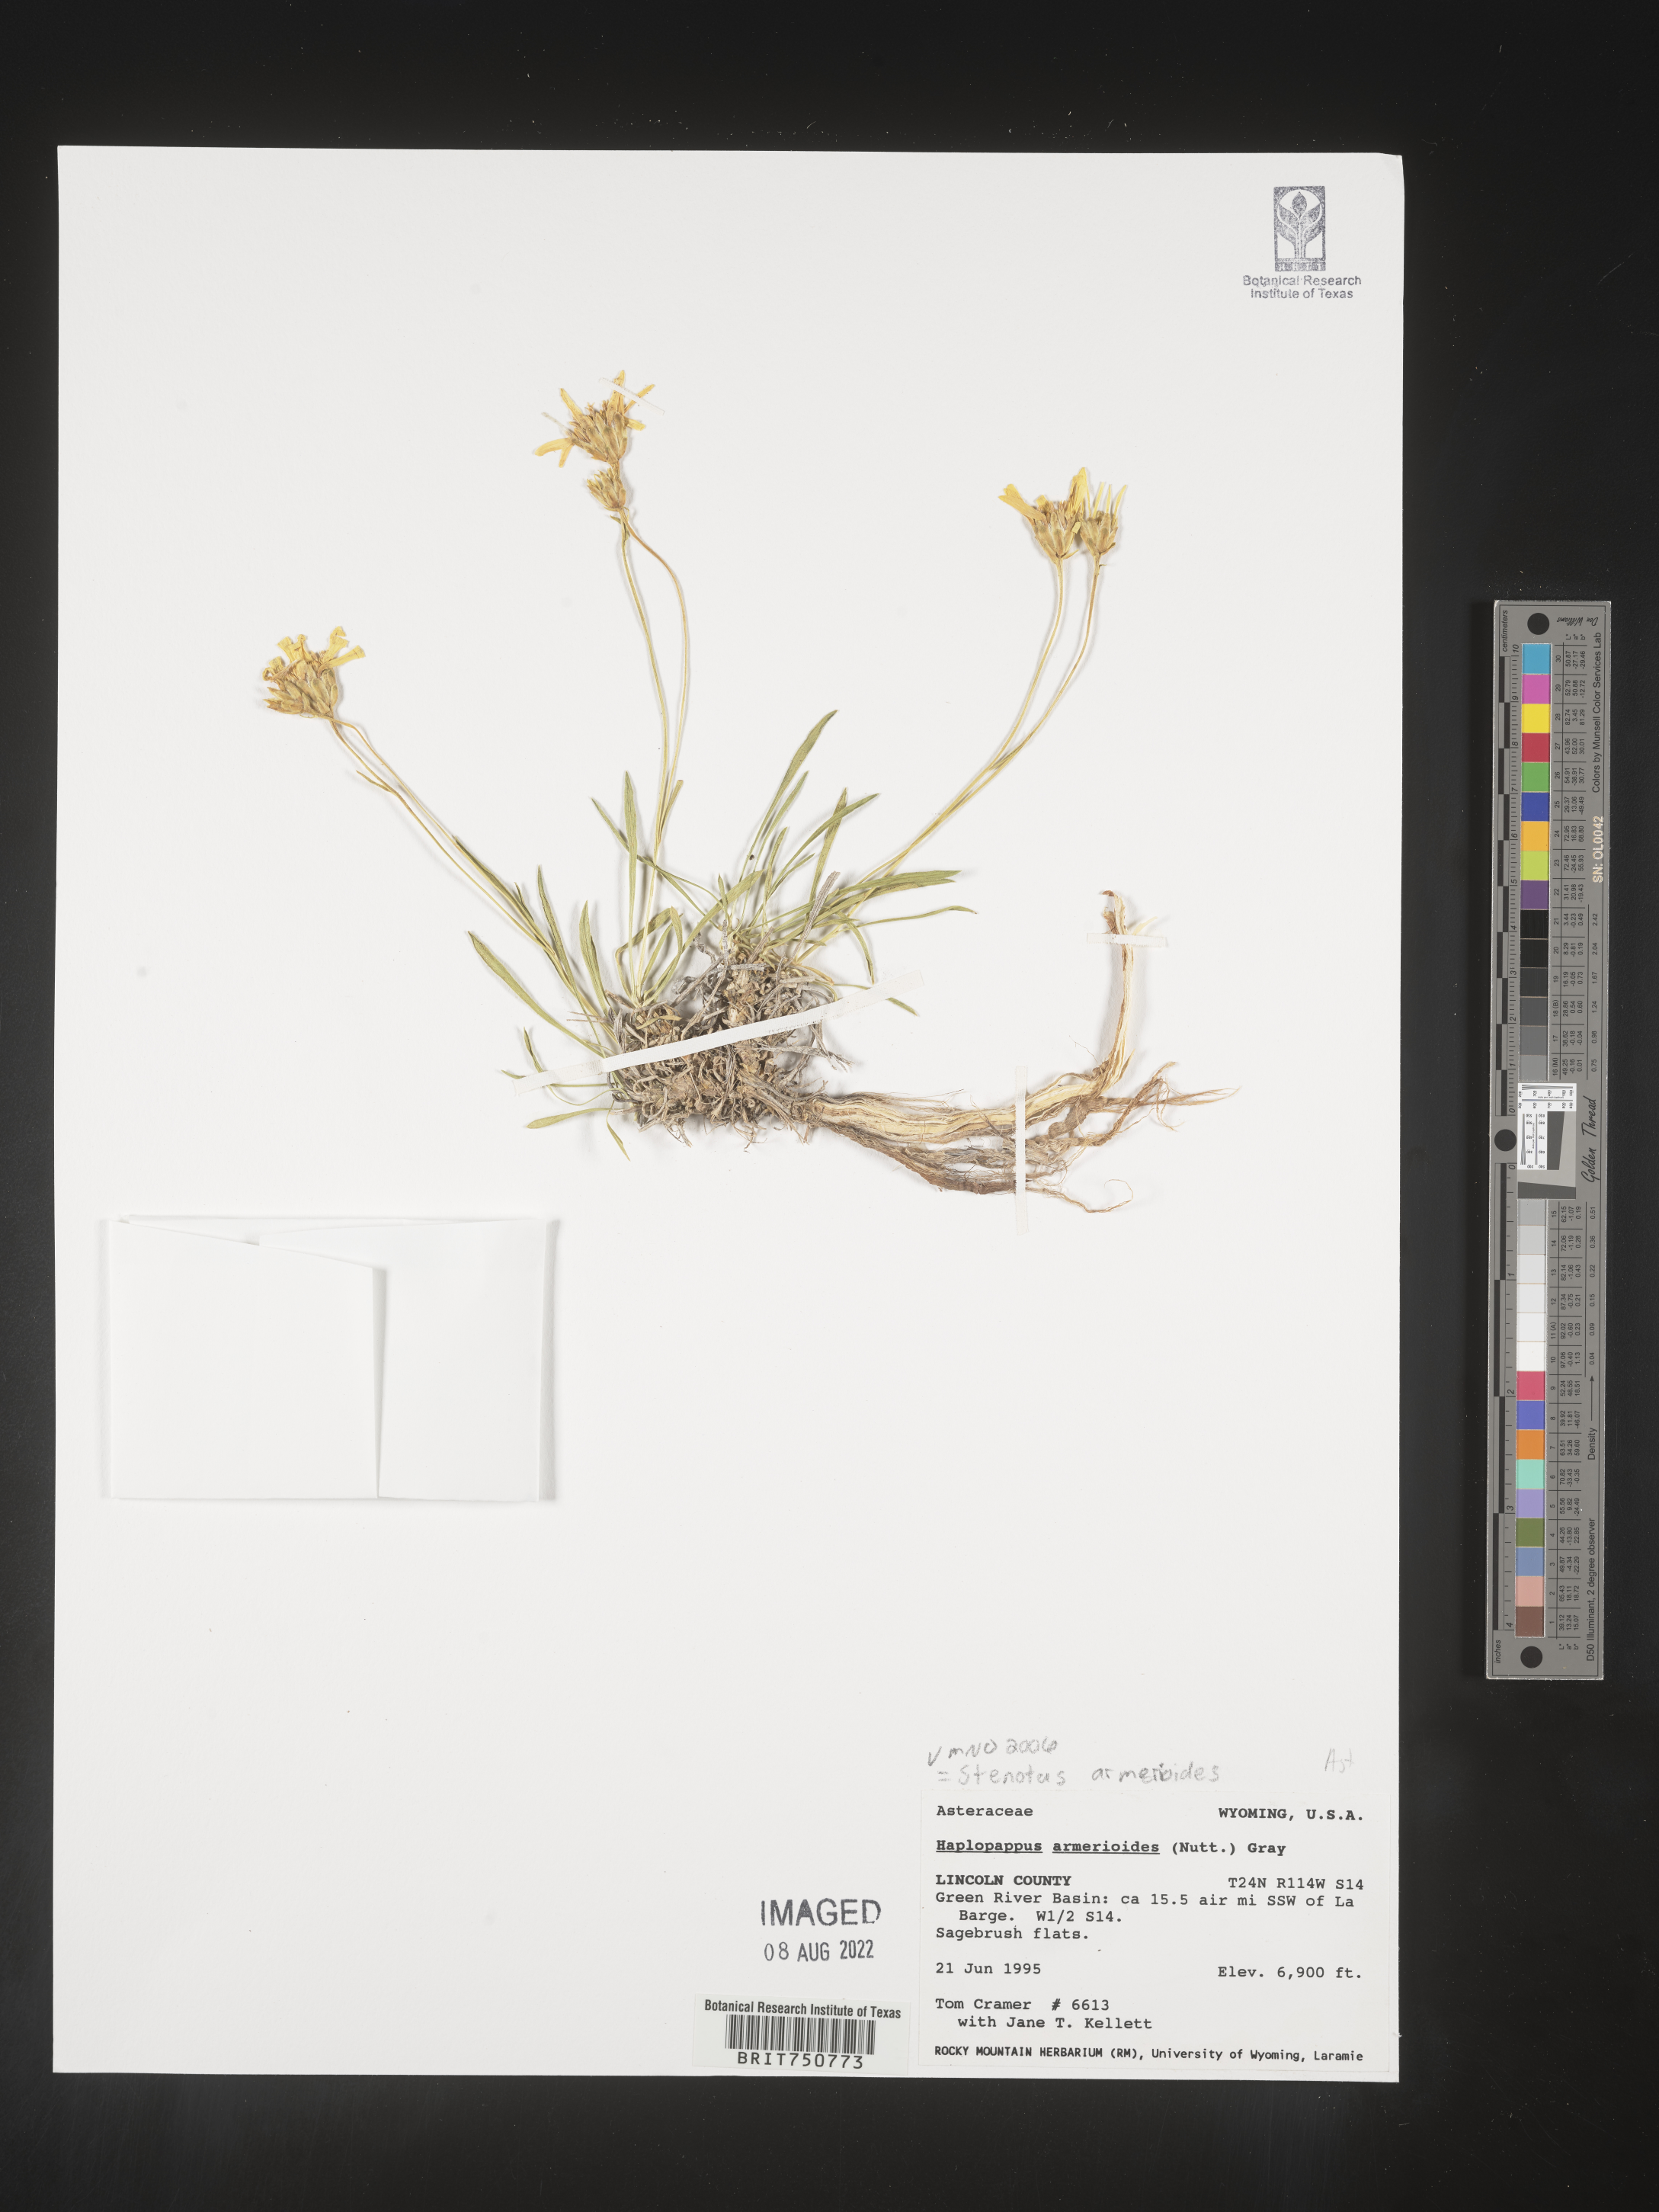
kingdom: Plantae
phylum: Tracheophyta
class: Magnoliopsida
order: Asterales
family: Asteraceae
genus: Stenotus
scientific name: Stenotus armerioides
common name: Thrifty goldenweed
